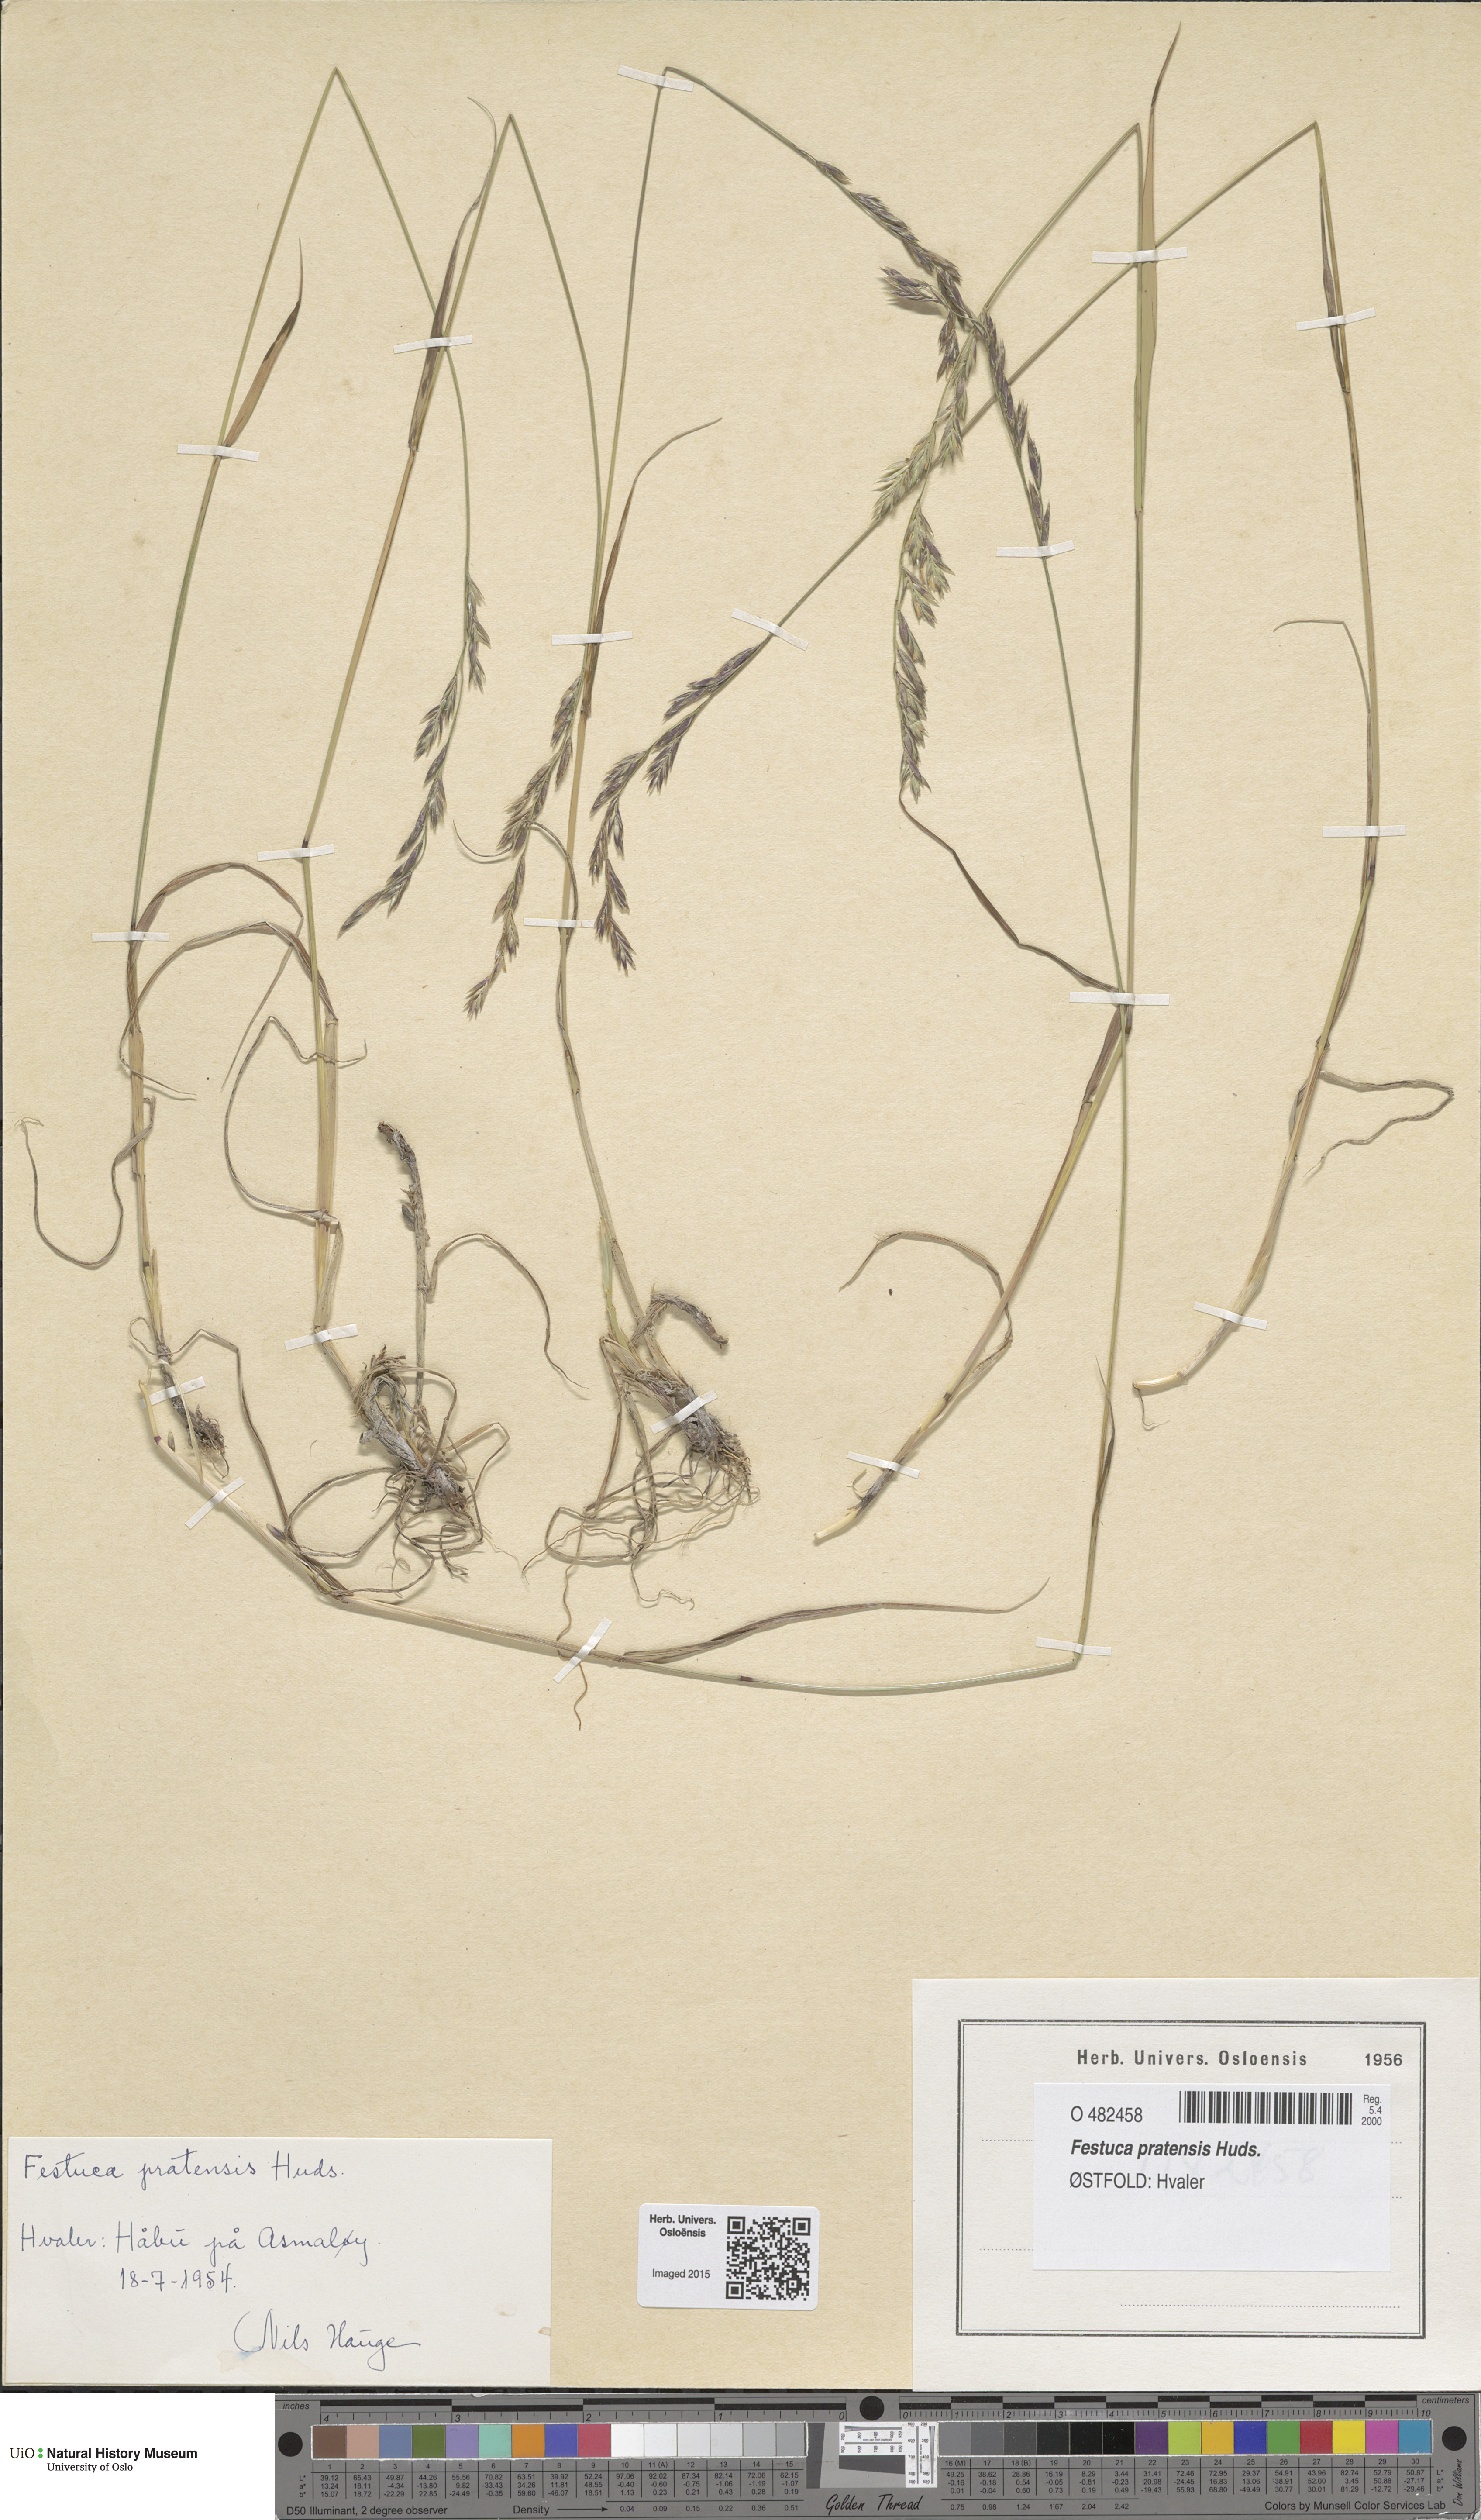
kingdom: Plantae
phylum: Tracheophyta
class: Liliopsida
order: Poales
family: Poaceae
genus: Lolium
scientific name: Lolium pratense
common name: Dover grass
